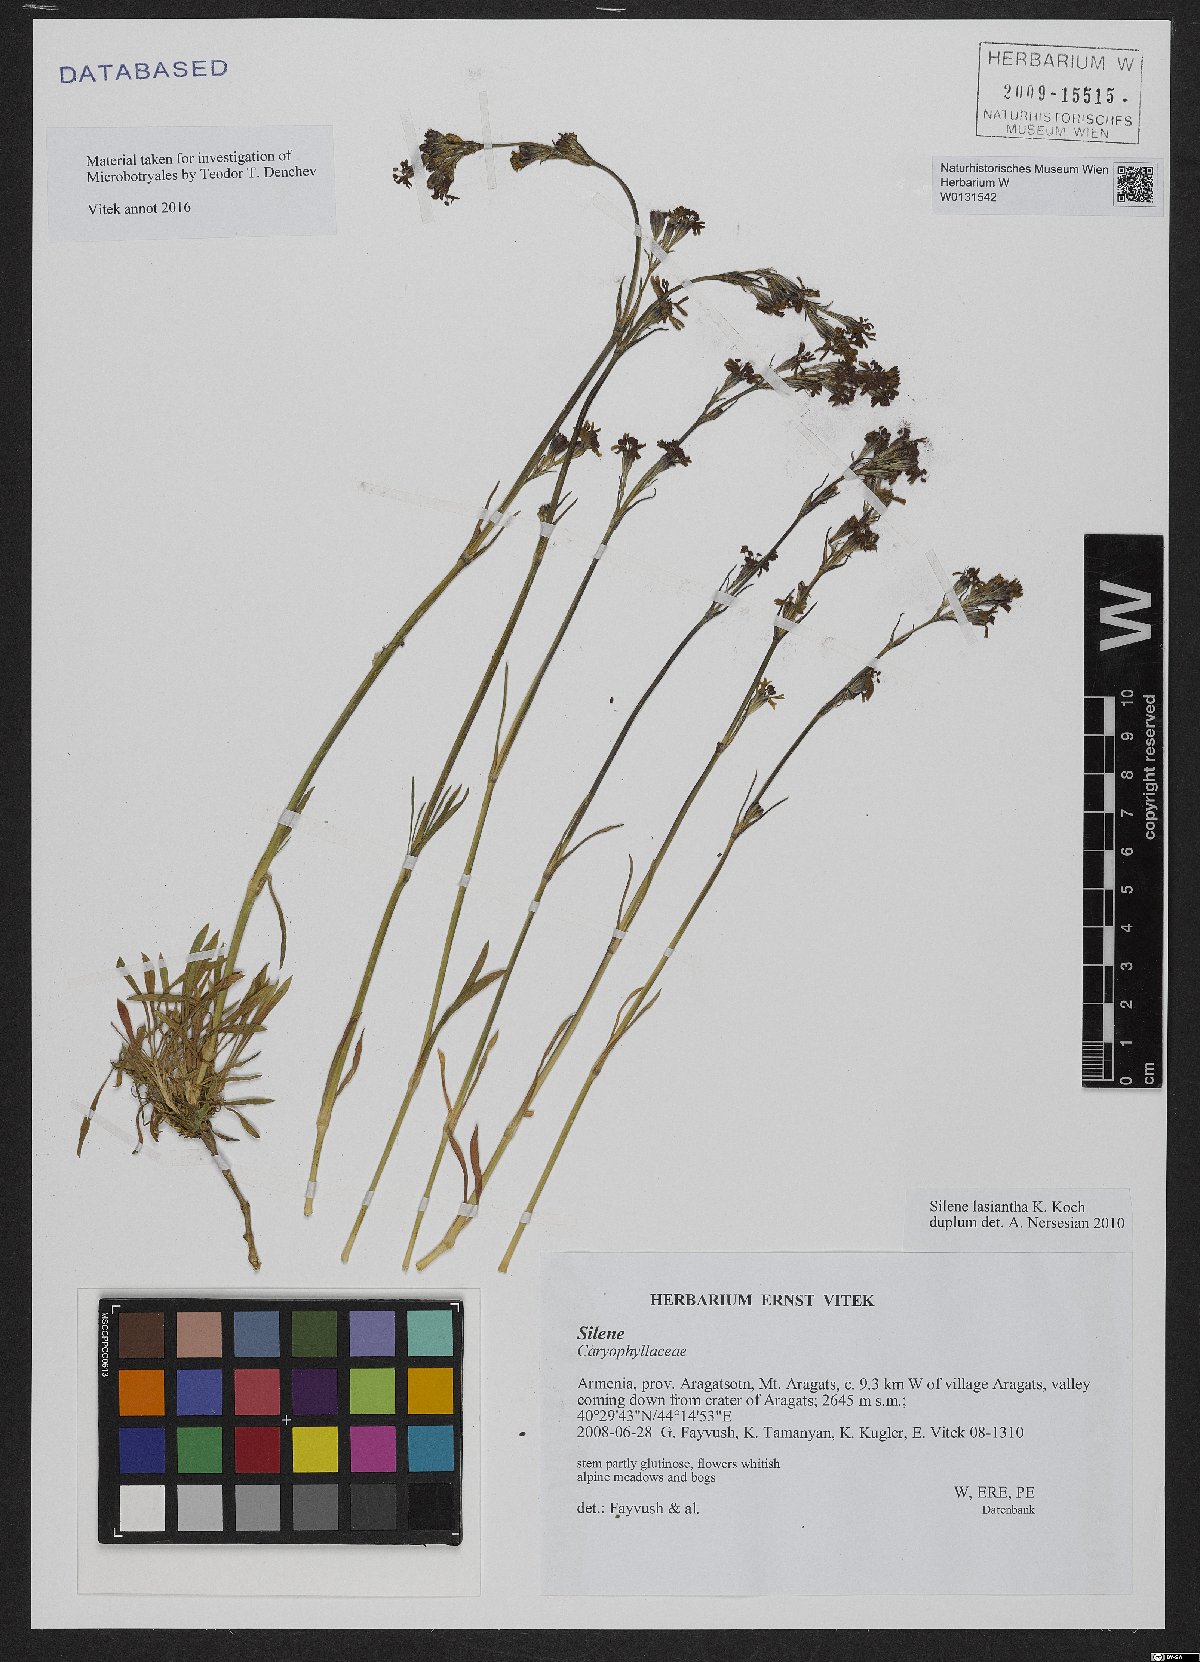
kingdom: Plantae
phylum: Tracheophyta
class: Magnoliopsida
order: Caryophyllales
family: Caryophyllaceae
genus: Silene
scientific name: Silene lasiantha
